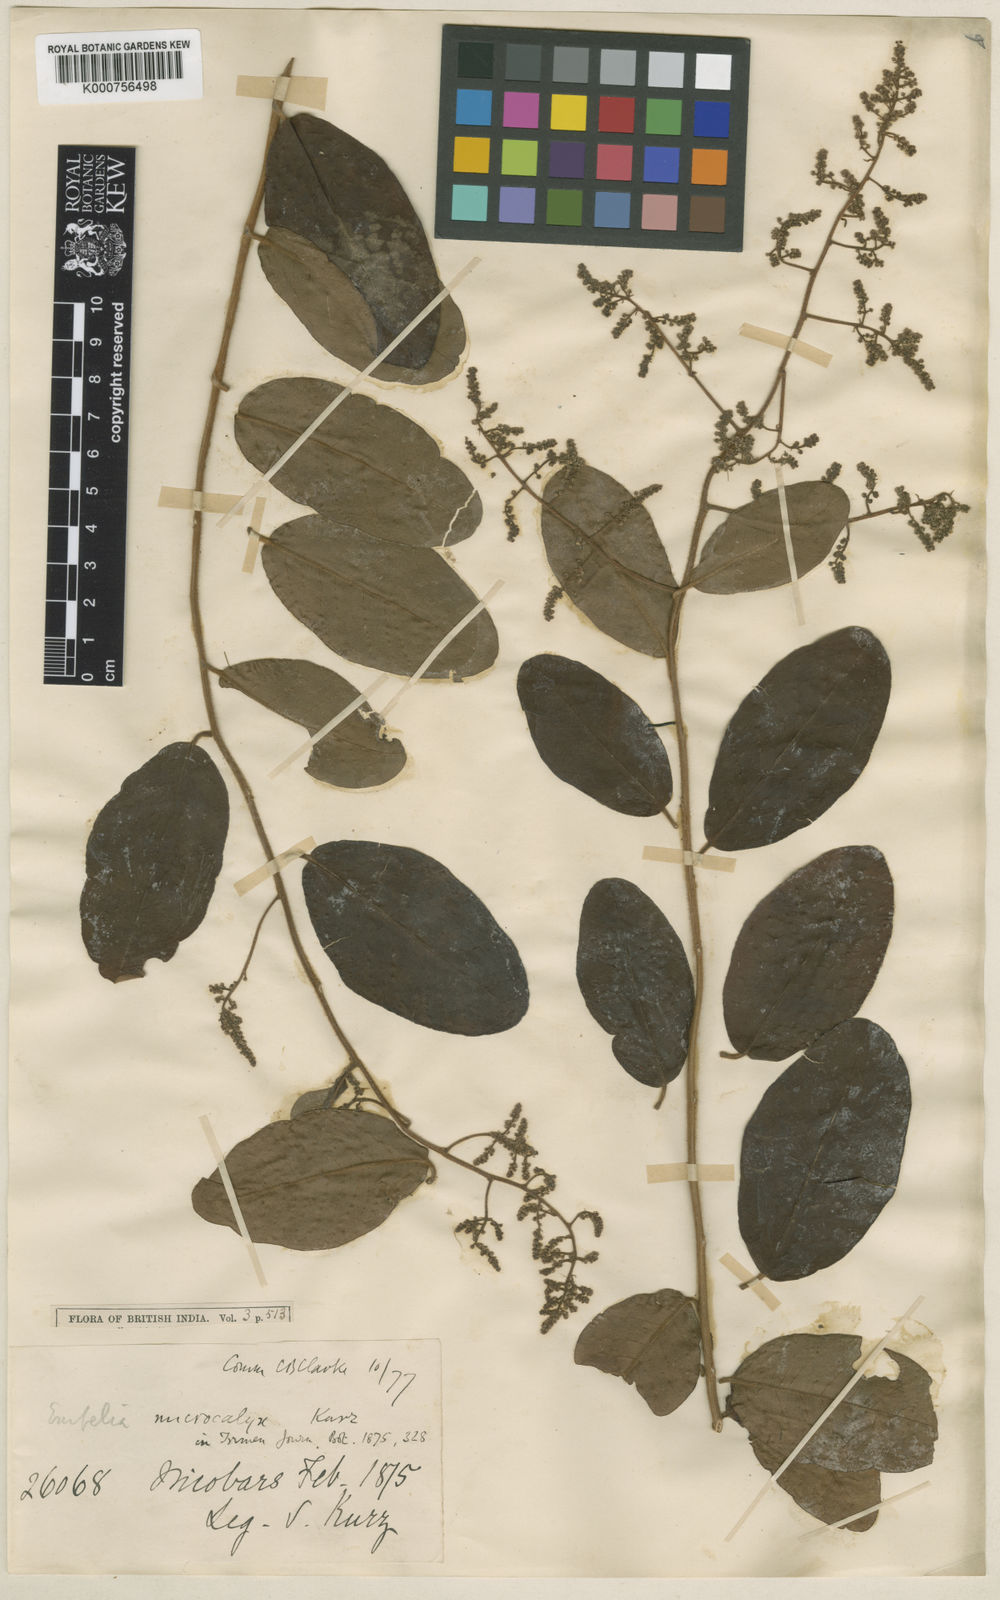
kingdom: Plantae
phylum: Tracheophyta
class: Magnoliopsida
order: Ericales
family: Primulaceae
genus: Embelia
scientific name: Embelia microcalyx
